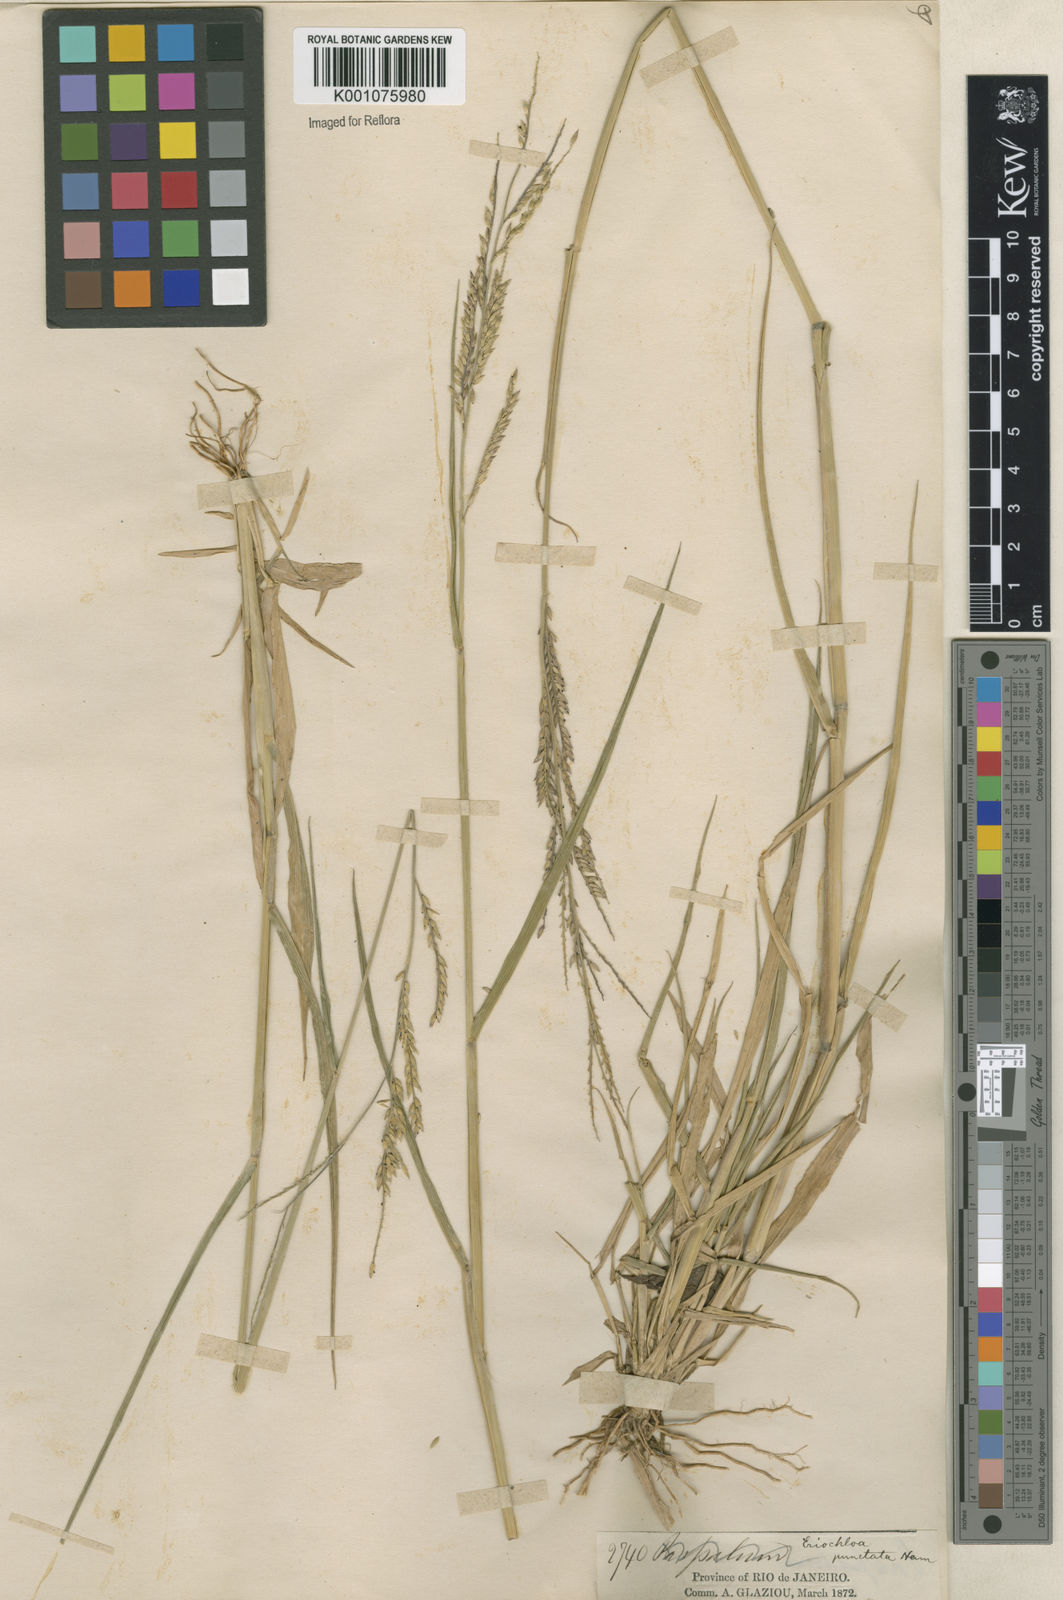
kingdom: Plantae
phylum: Tracheophyta
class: Liliopsida
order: Poales
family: Poaceae
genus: Eriochloa
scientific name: Eriochloa punctata
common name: Louisiana cupgrass
